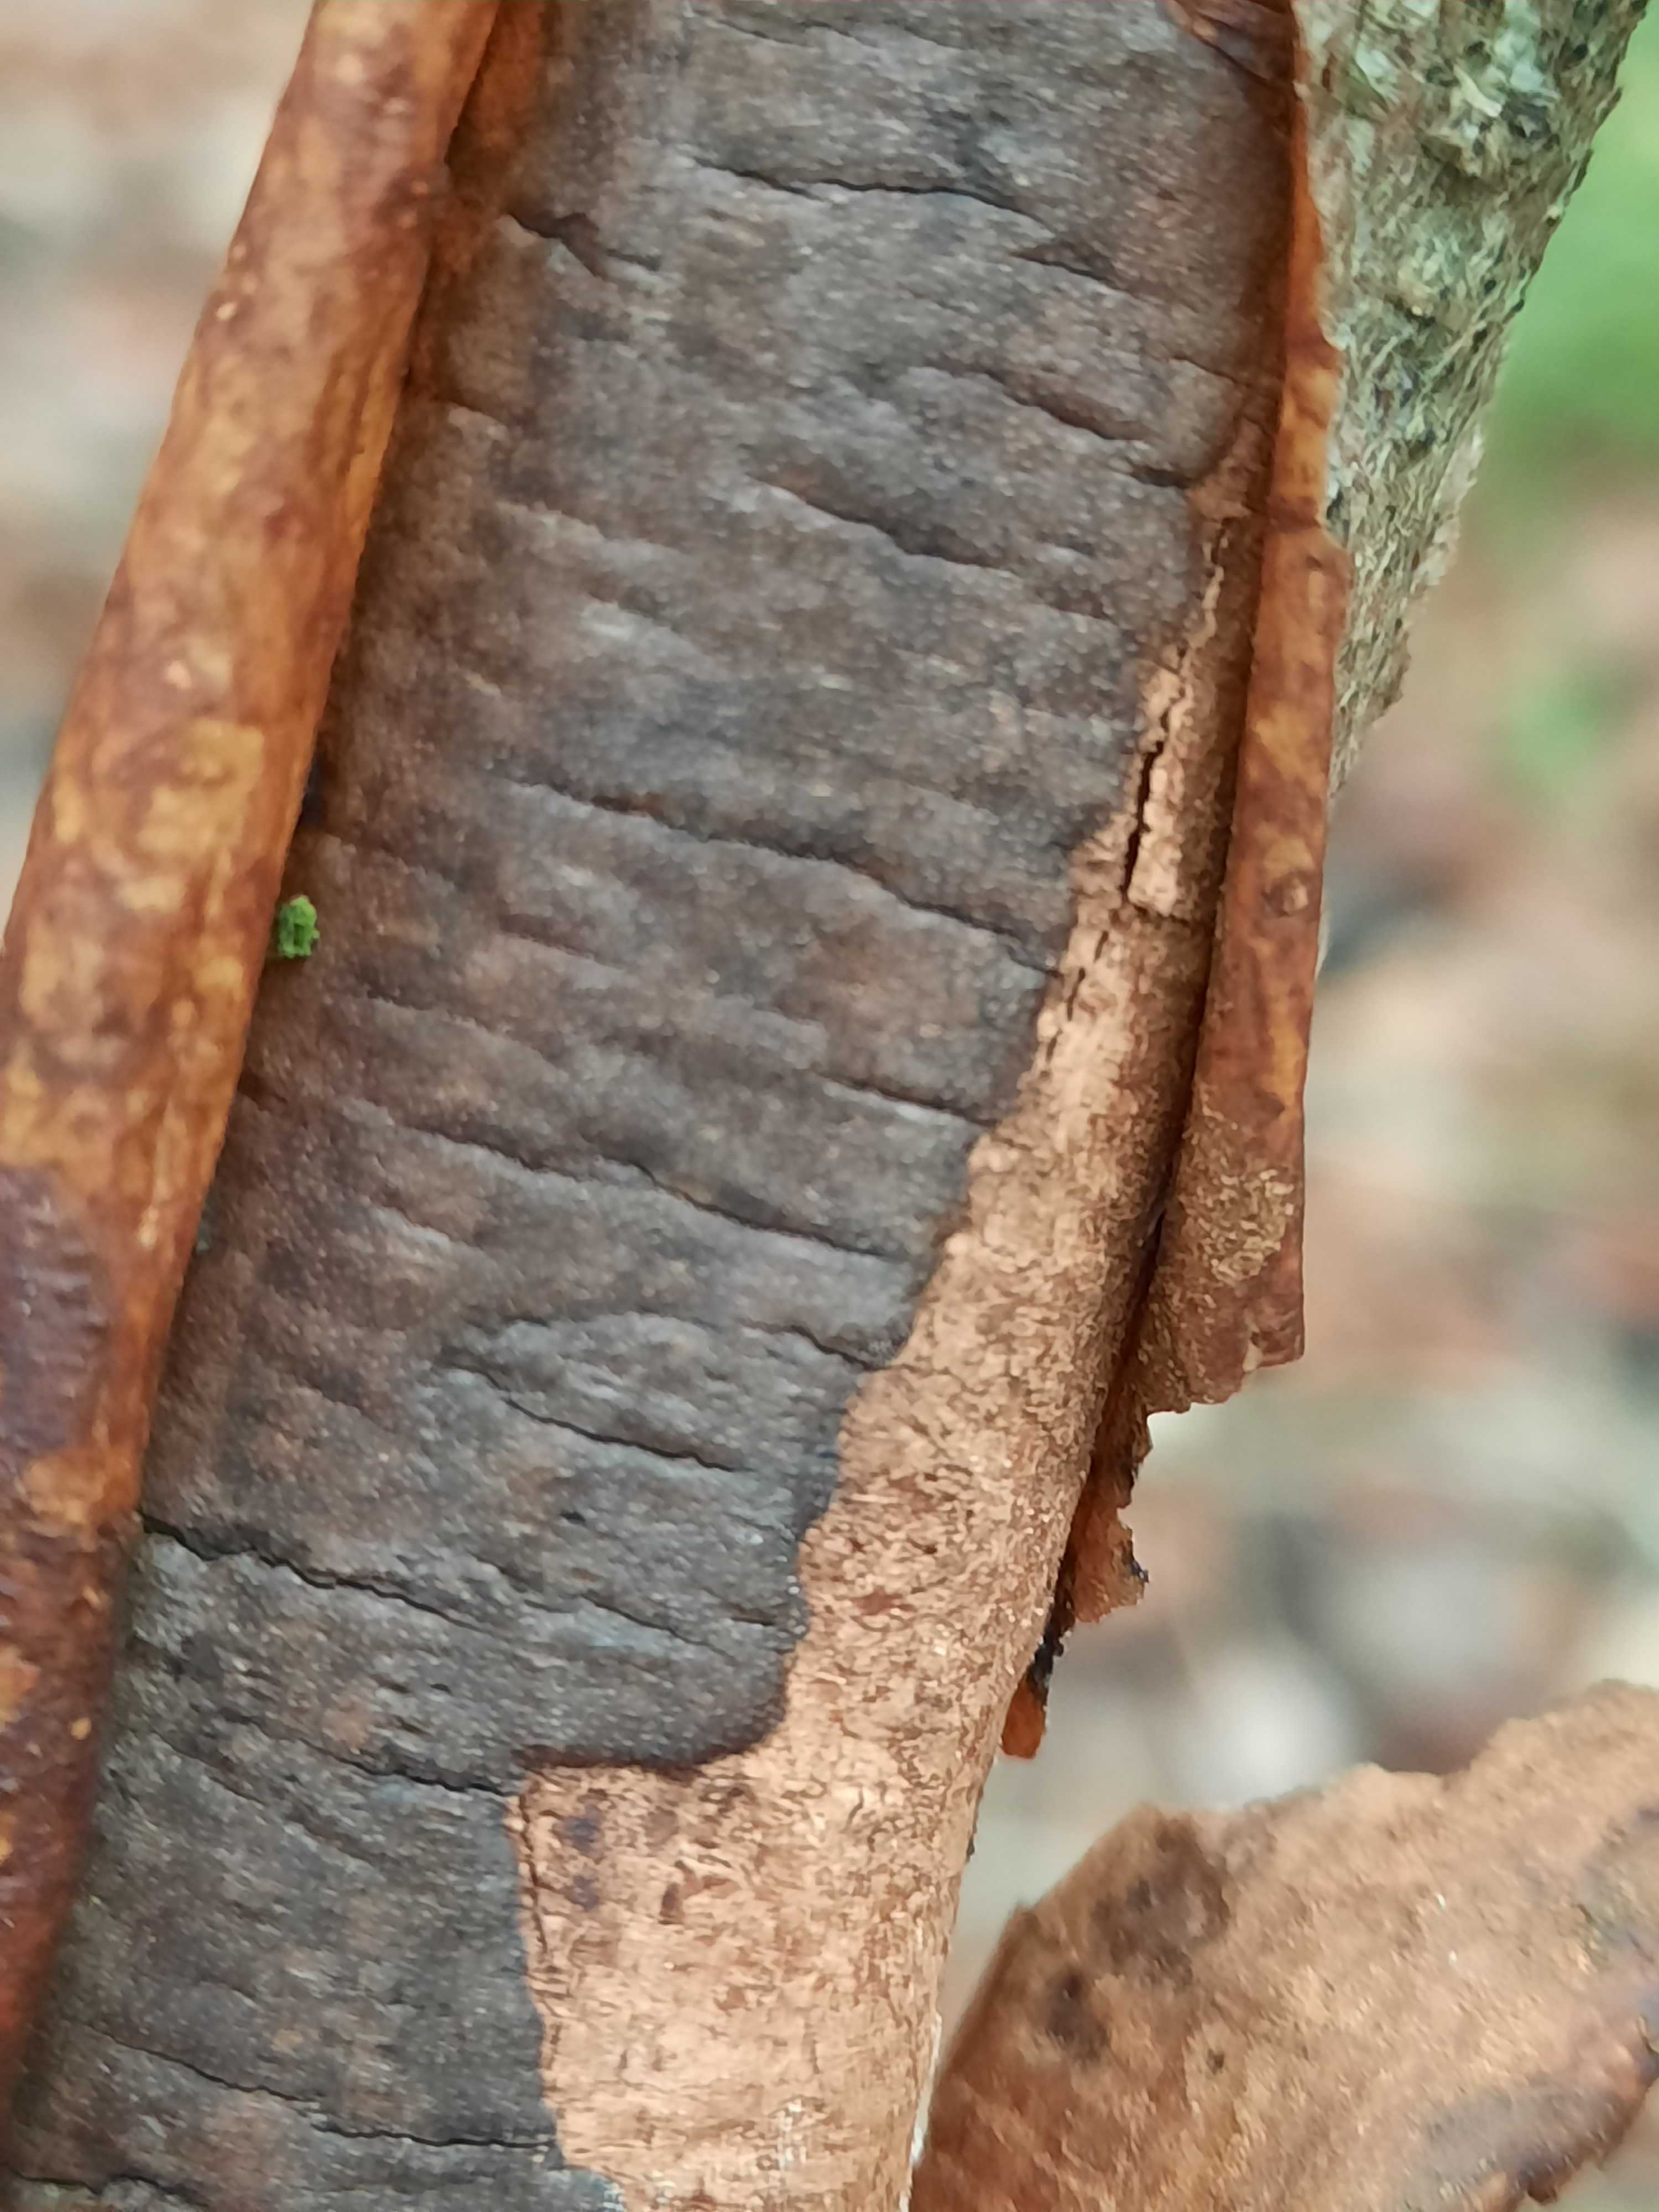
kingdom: Fungi
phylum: Ascomycota
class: Sordariomycetes
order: Xylariales
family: Diatrypaceae
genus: Diatrype
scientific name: Diatrype decorticata
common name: barksprænger-kulskorpe
